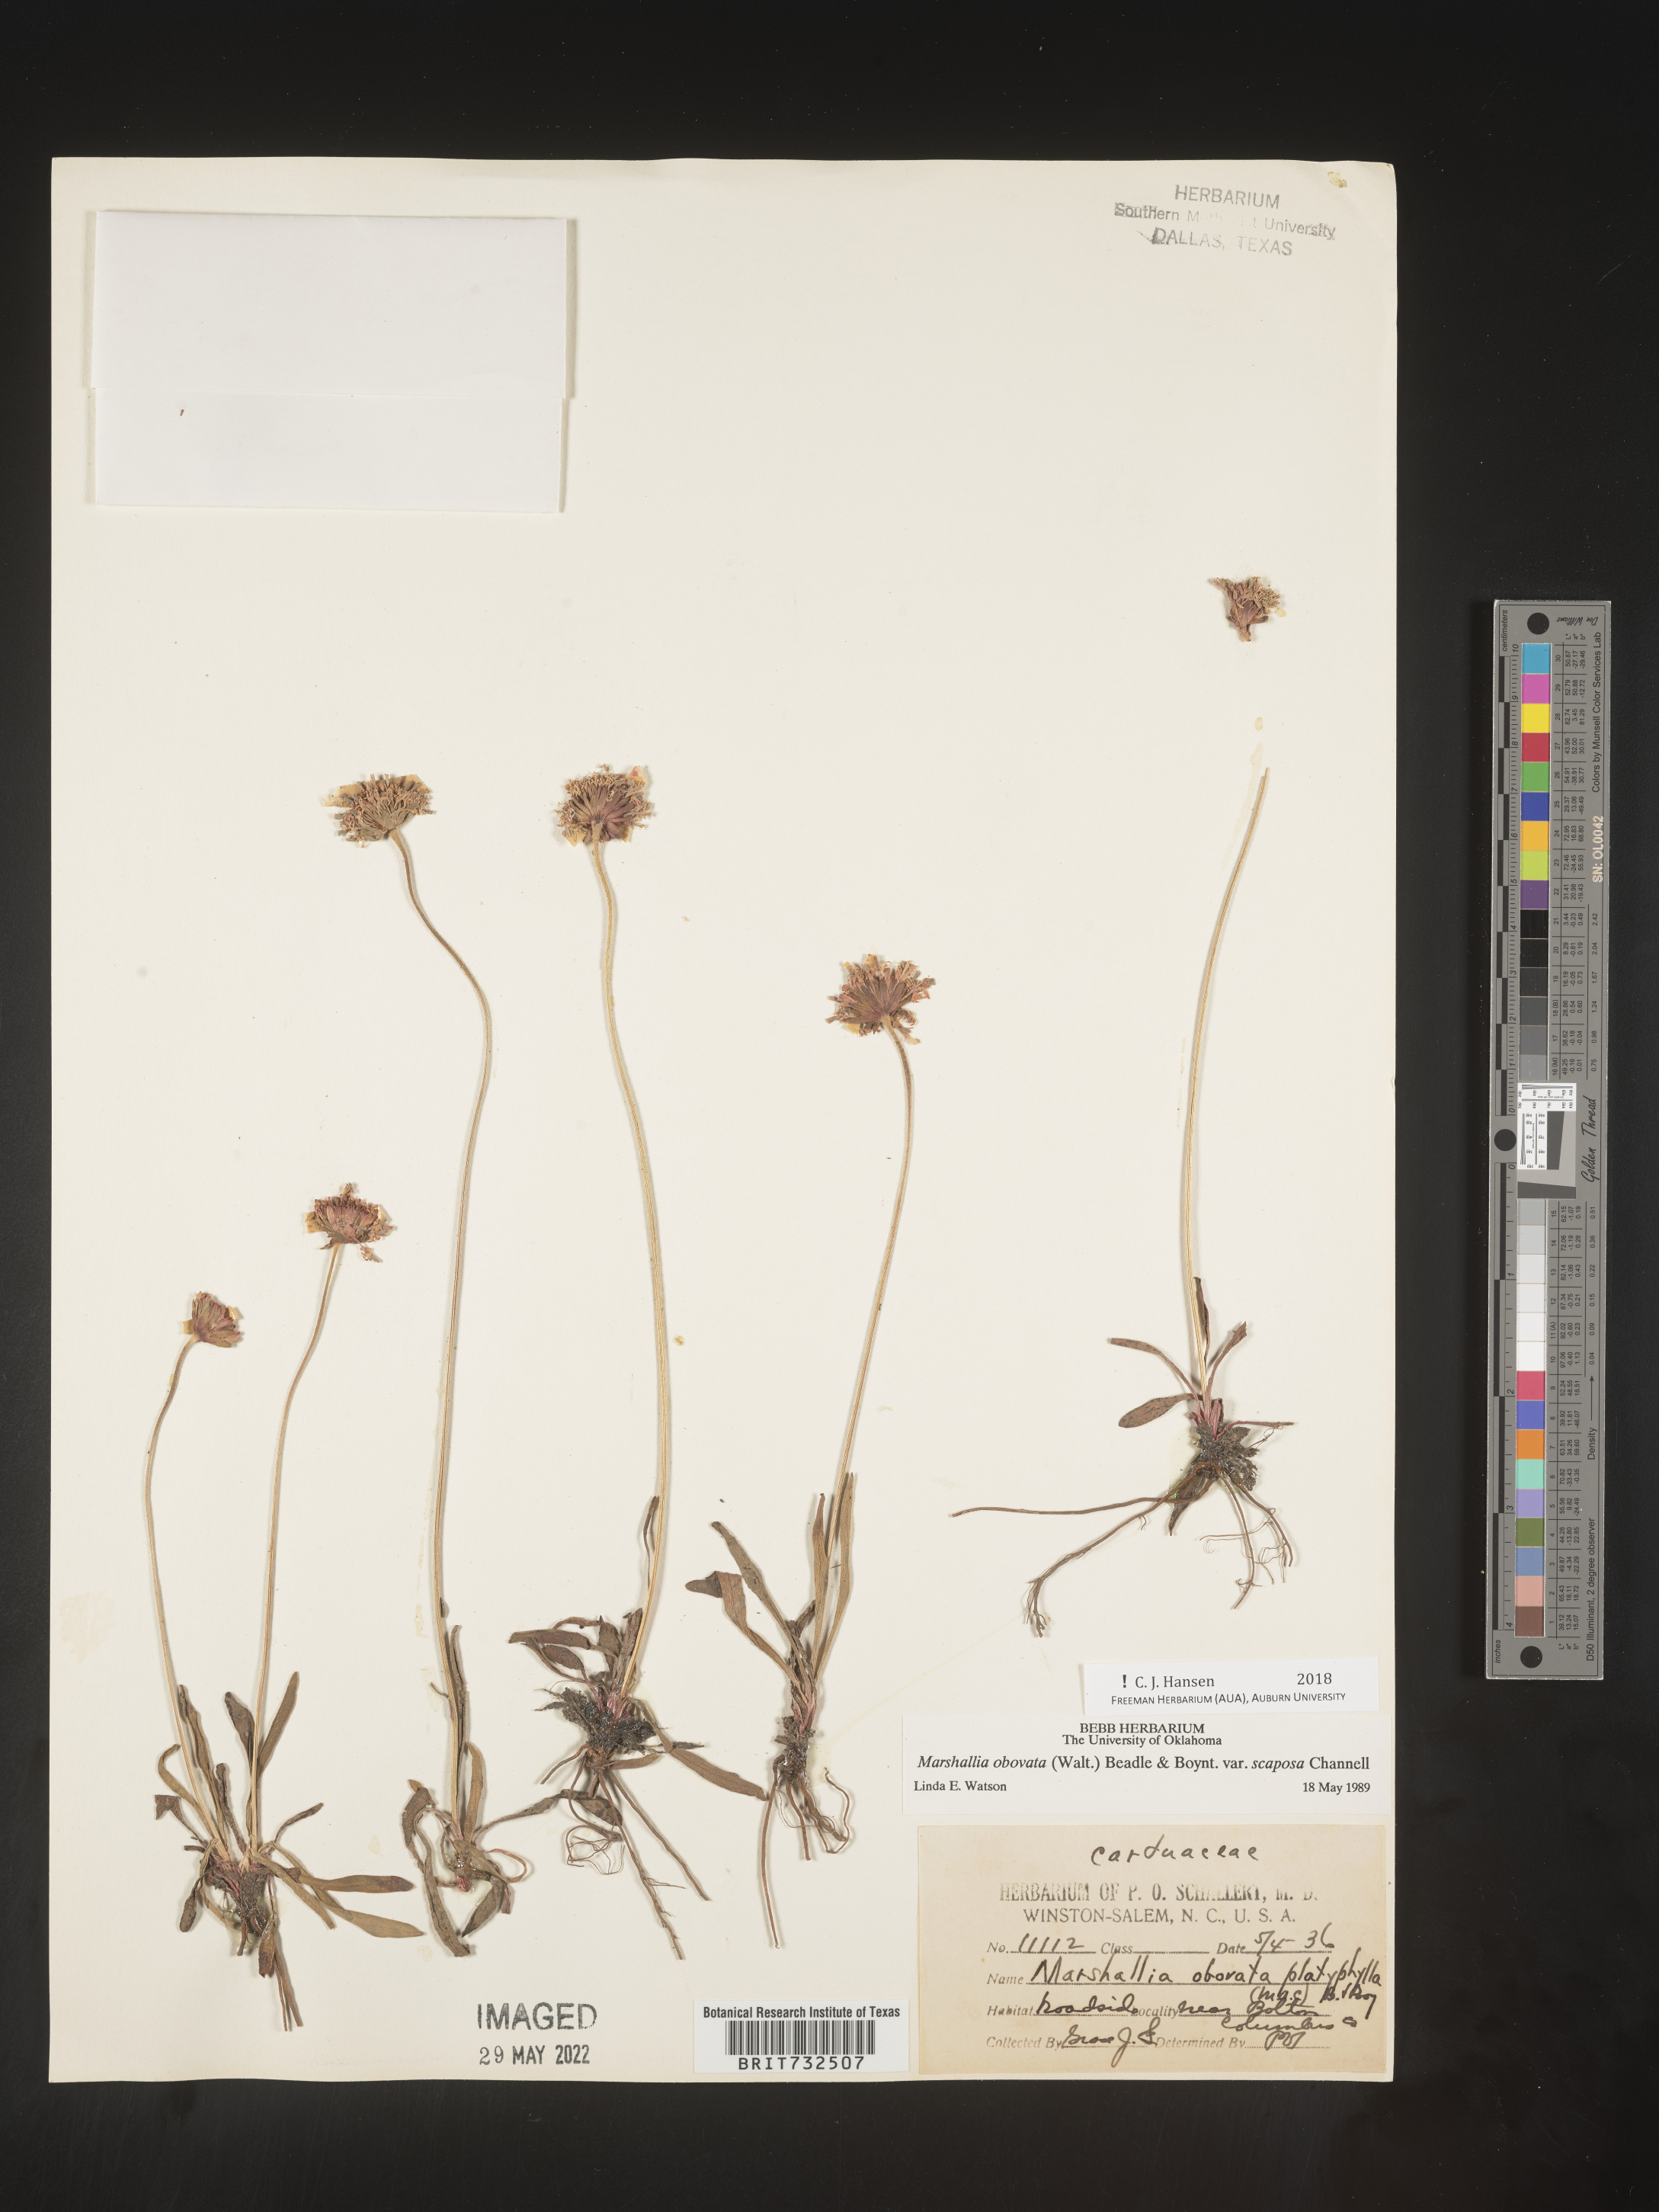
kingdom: Plantae
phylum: Tracheophyta
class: Magnoliopsida
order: Asterales
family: Asteraceae
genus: Marshallia
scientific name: Marshallia obovata
